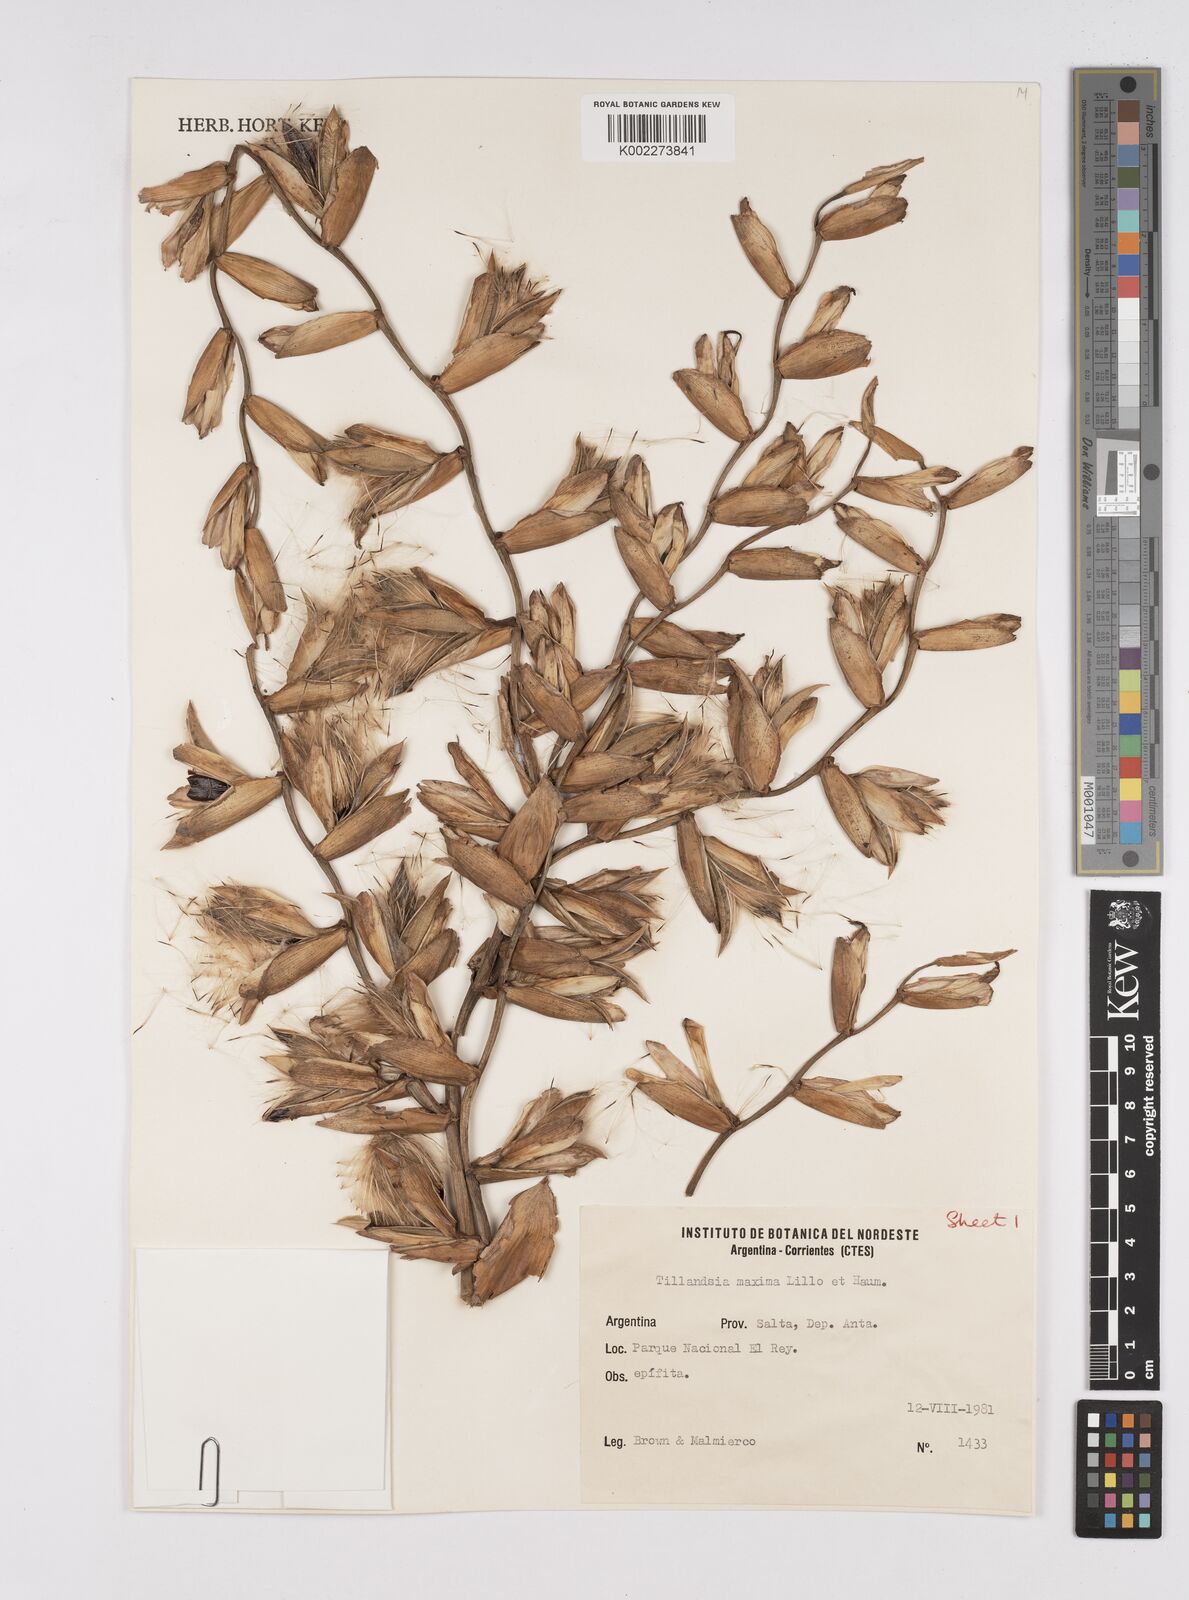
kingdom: Plantae
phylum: Tracheophyta
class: Liliopsida
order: Poales
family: Bromeliaceae
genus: Tillandsia
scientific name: Tillandsia australis
